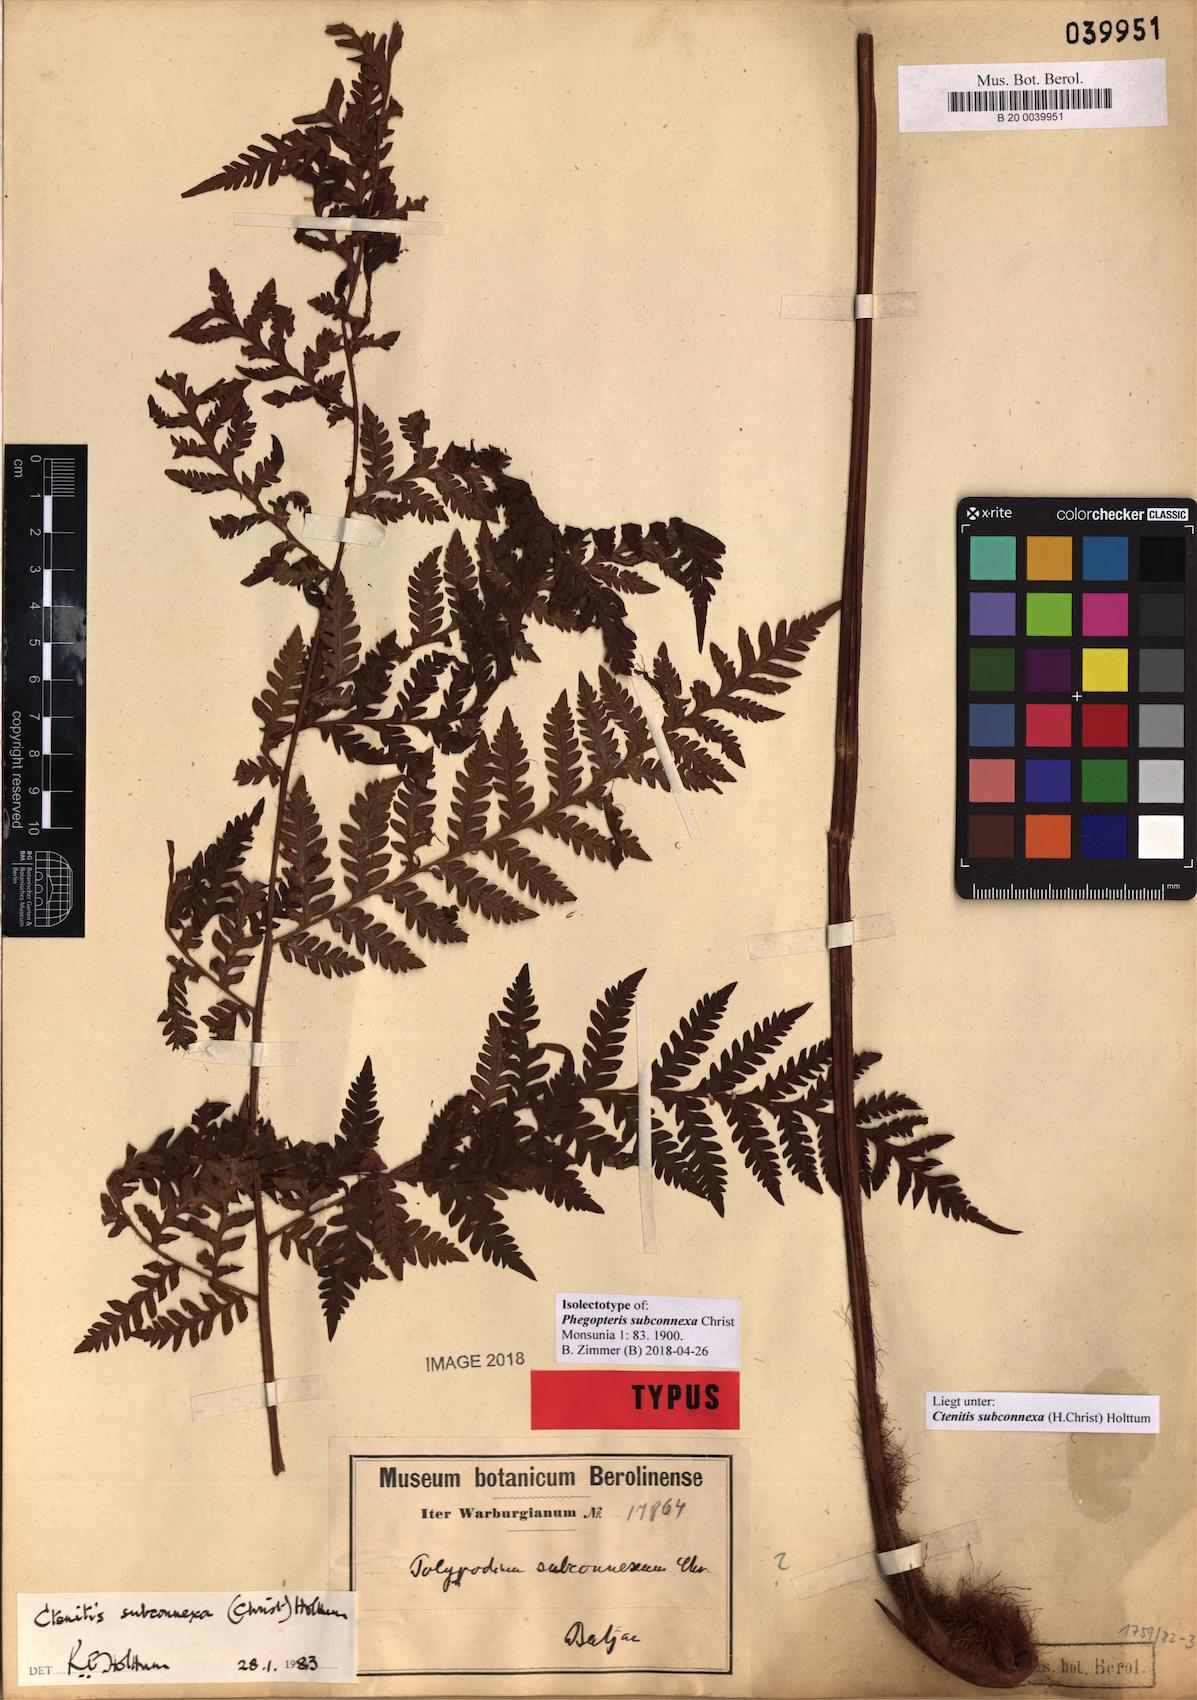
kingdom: Plantae
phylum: Tracheophyta
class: Polypodiopsida
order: Polypodiales
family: Dryopteridaceae
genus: Ctenitis
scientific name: Ctenitis subconnexa
